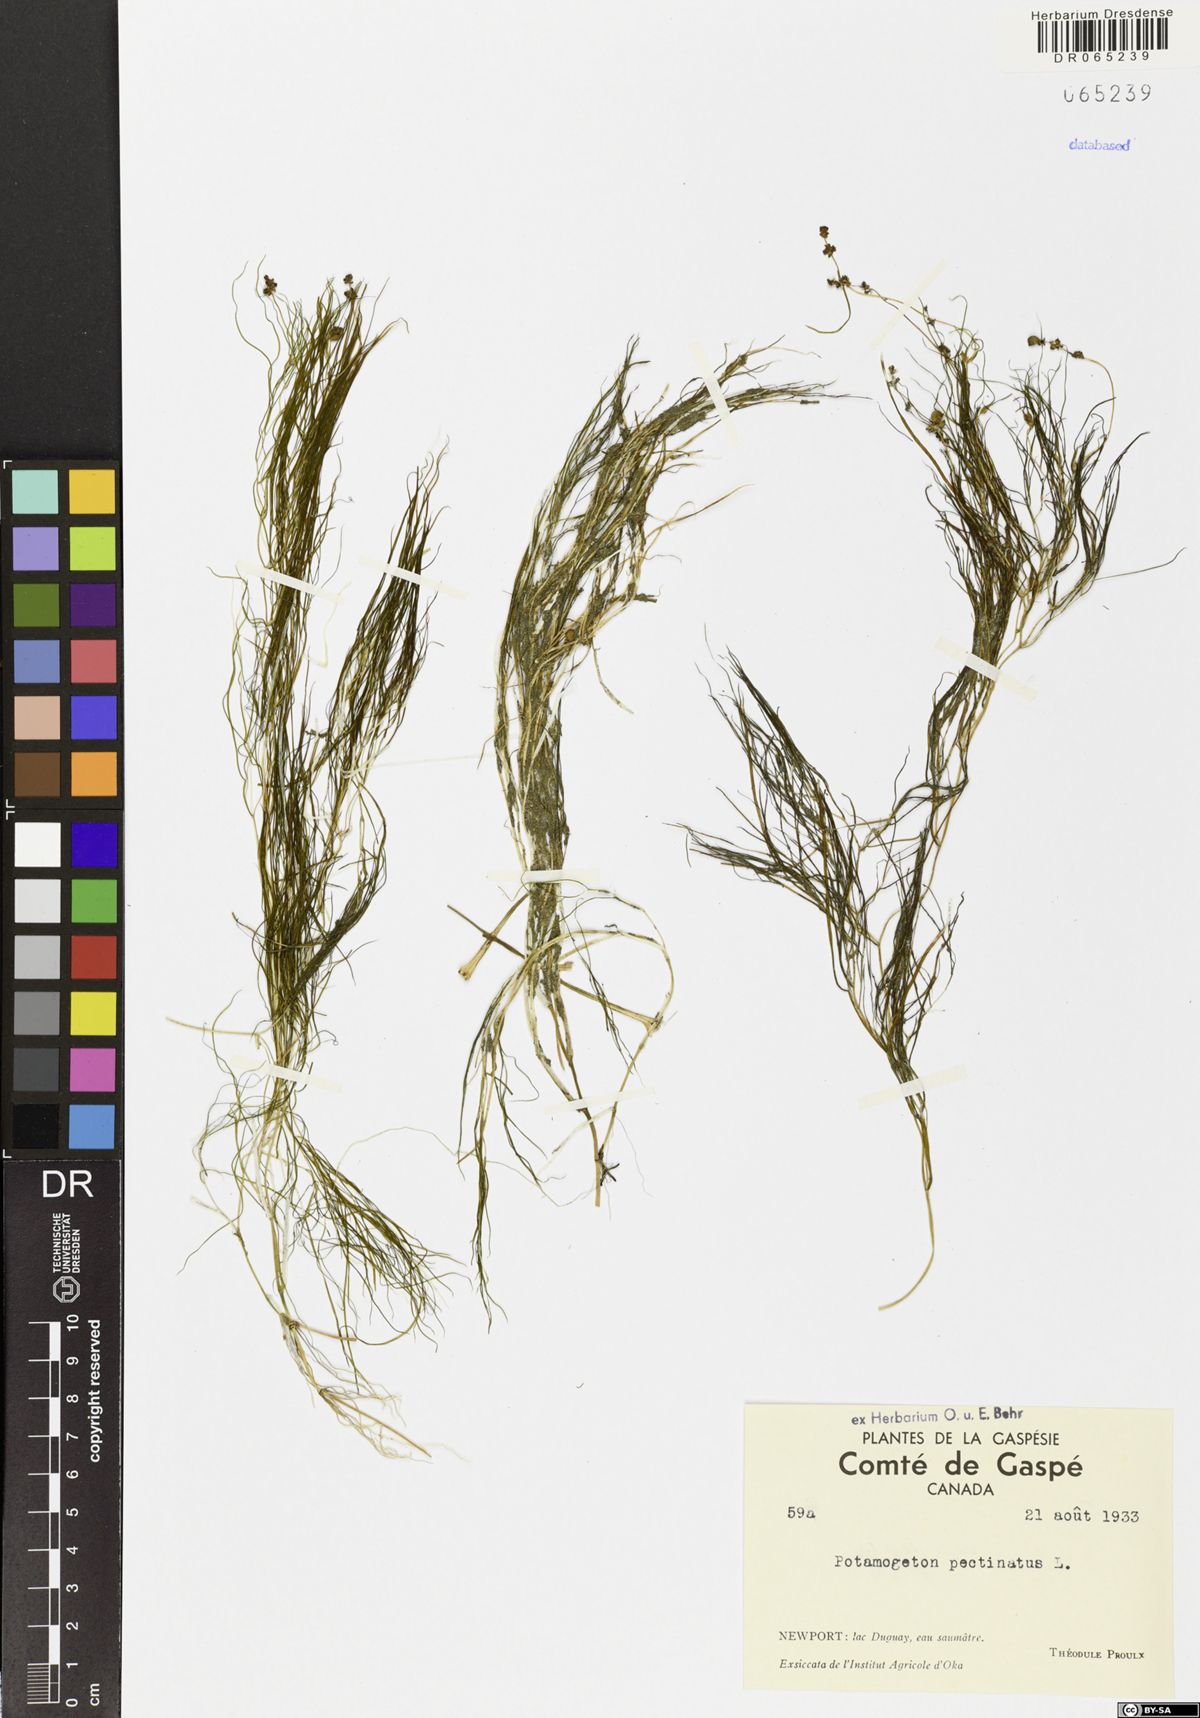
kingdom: Plantae
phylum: Tracheophyta
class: Liliopsida
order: Alismatales
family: Potamogetonaceae
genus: Stuckenia
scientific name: Stuckenia pectinata
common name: Sago pondweed
